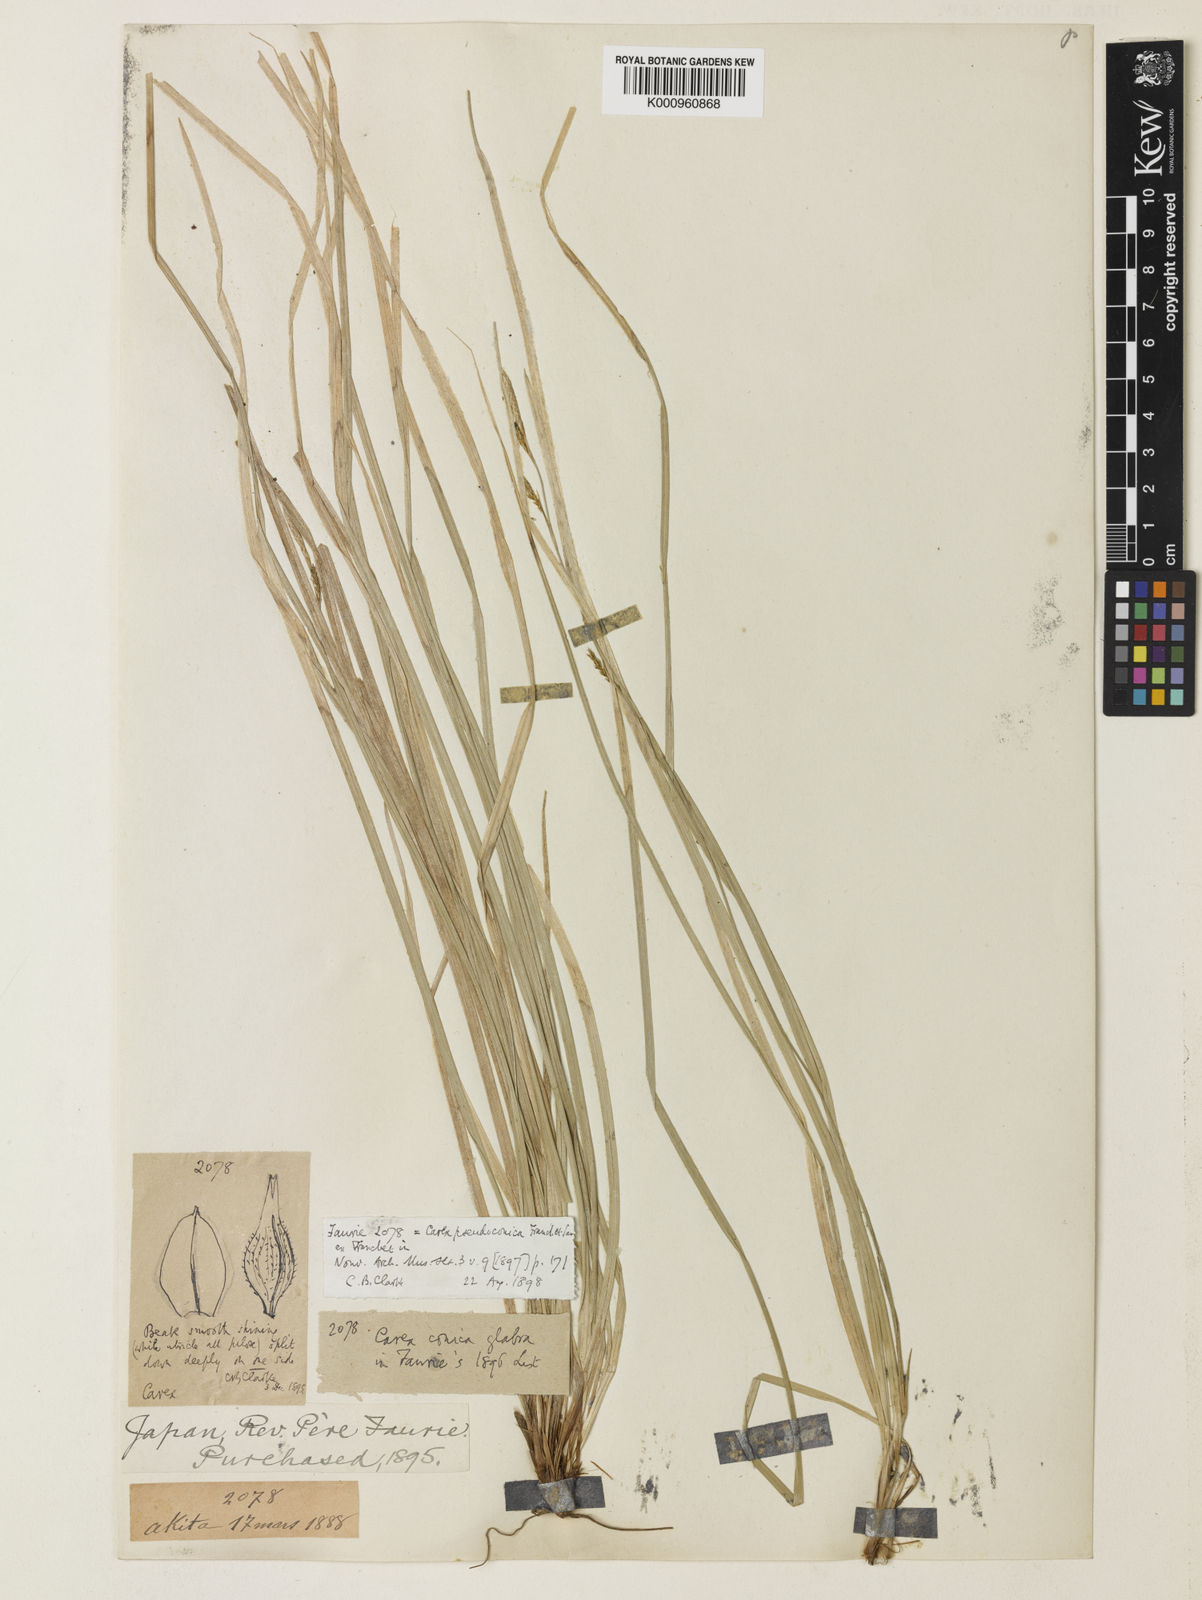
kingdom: Plantae
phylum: Tracheophyta
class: Liliopsida
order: Poales
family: Cyperaceae
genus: Carex
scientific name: Carex pisiformis
